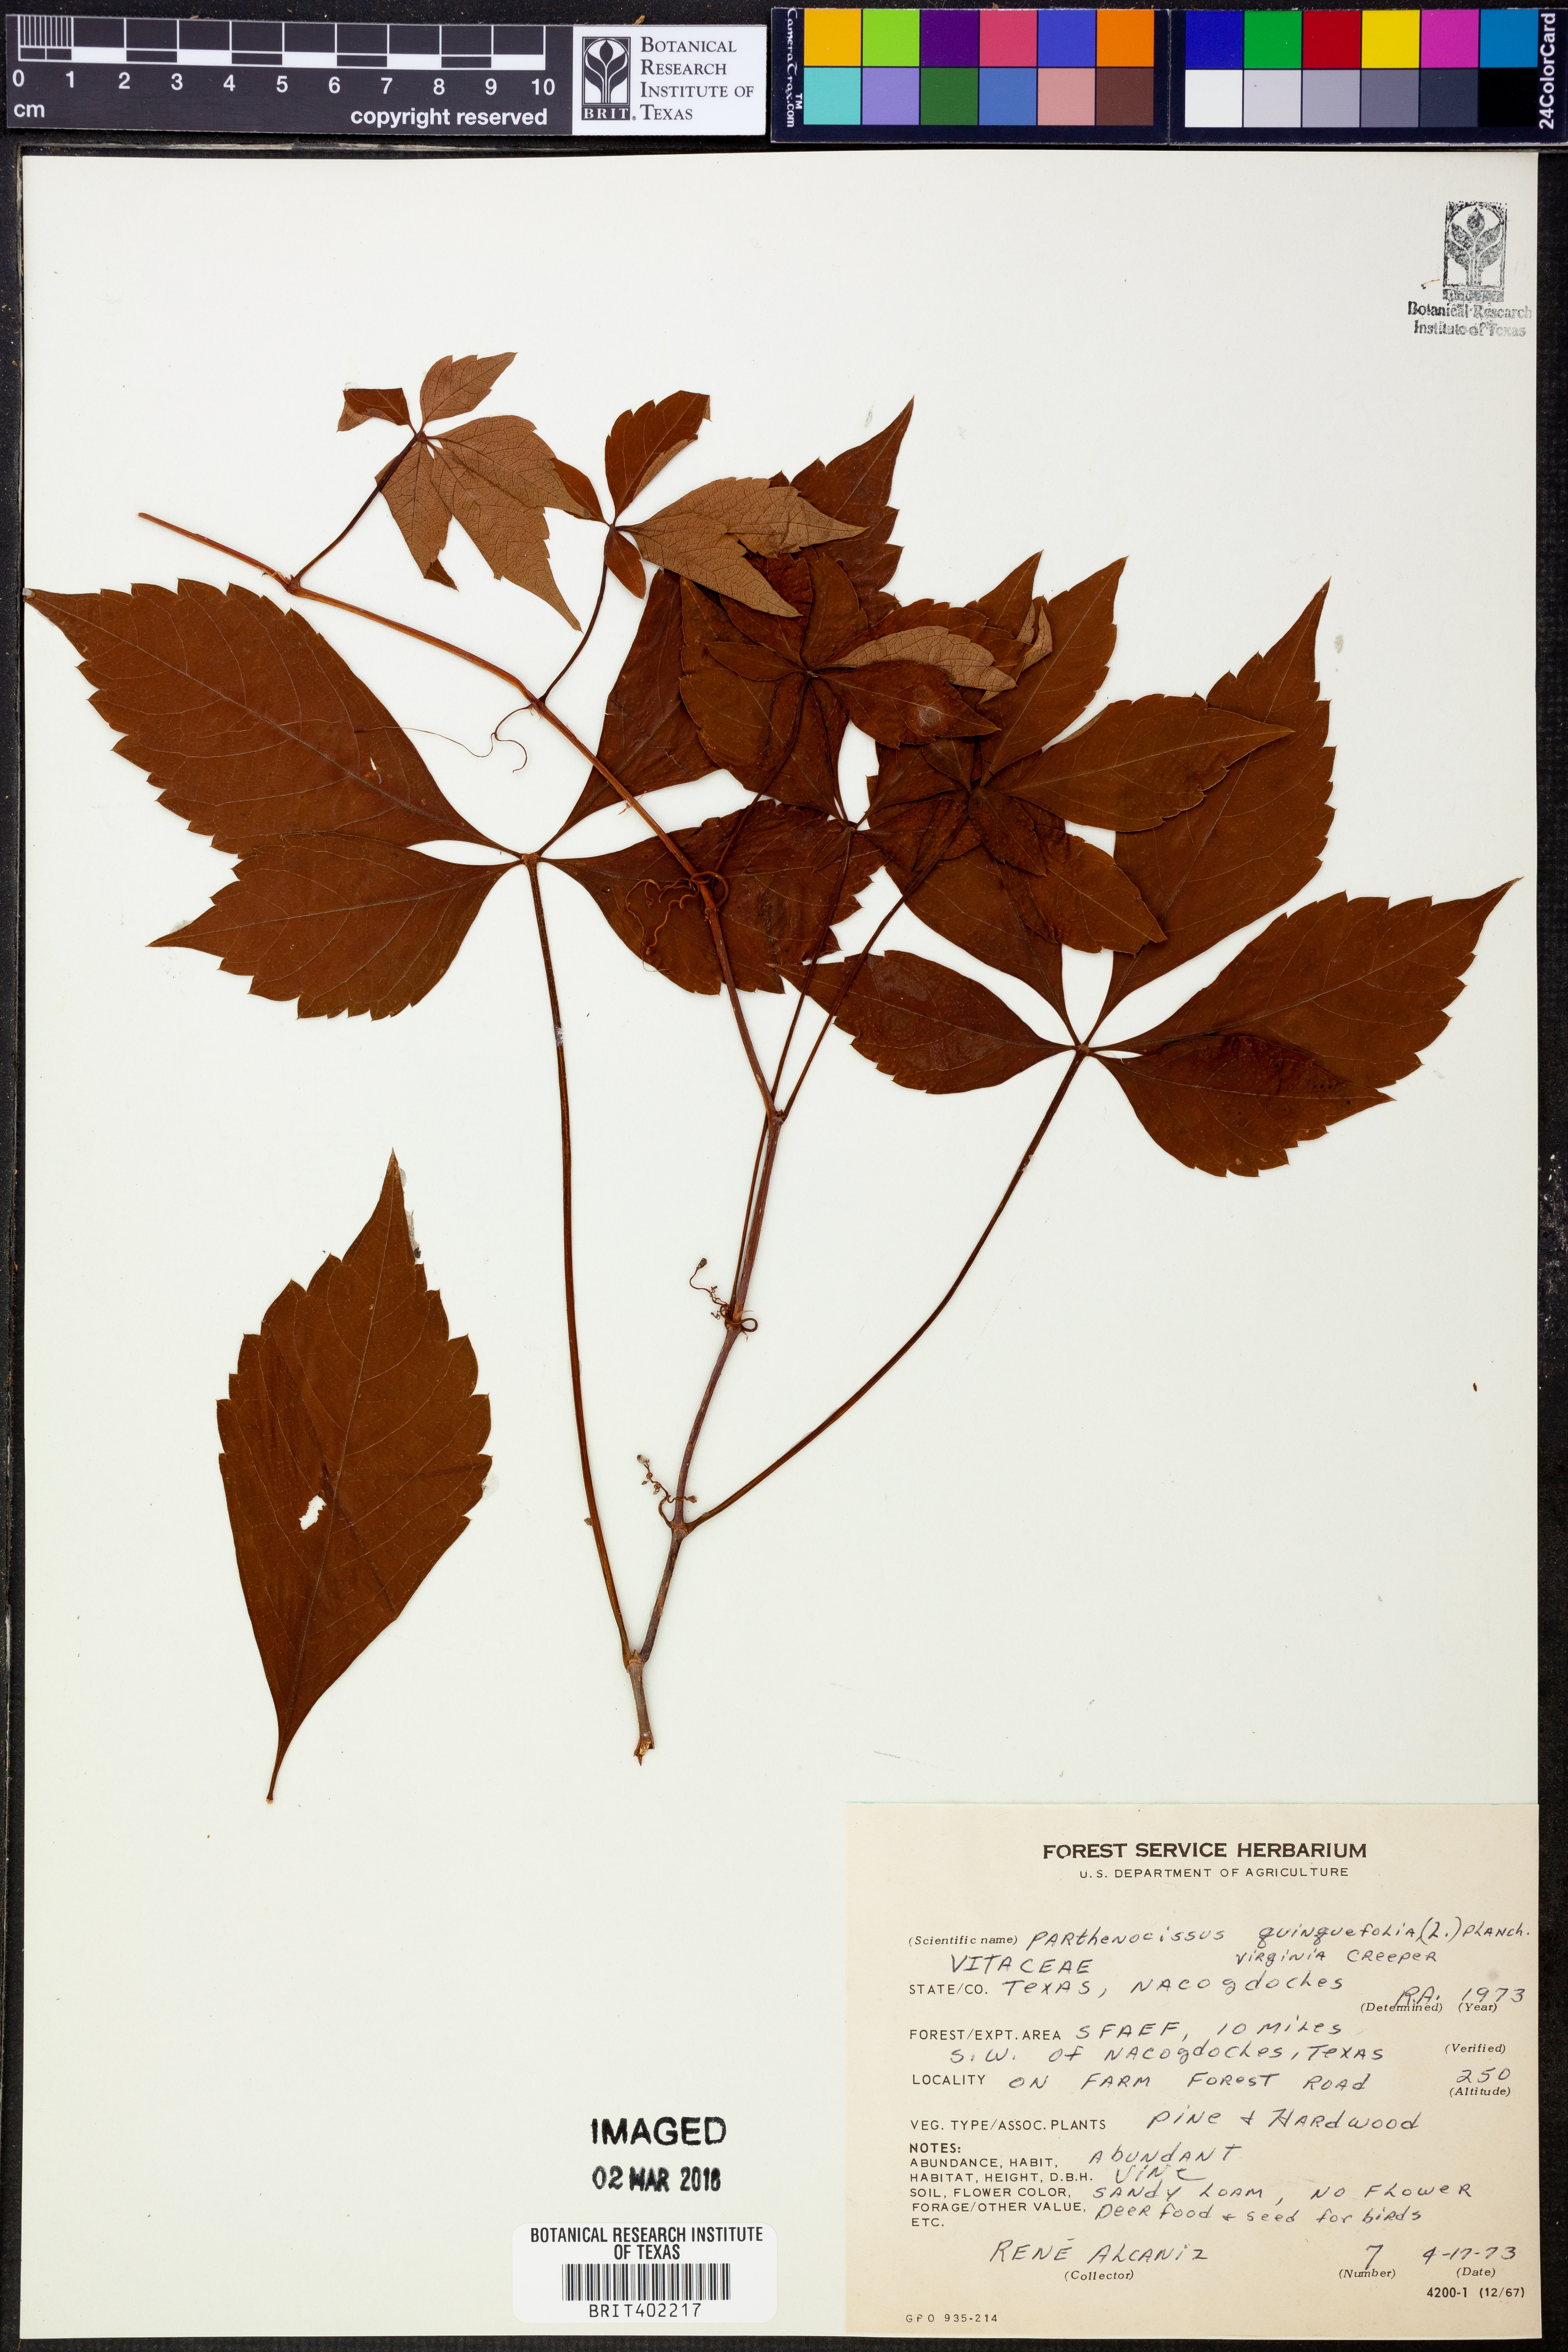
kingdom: Plantae
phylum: Tracheophyta
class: Magnoliopsida
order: Vitales
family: Vitaceae
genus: Parthenocissus
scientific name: Parthenocissus quinquefolia
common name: Virginia-creeper
